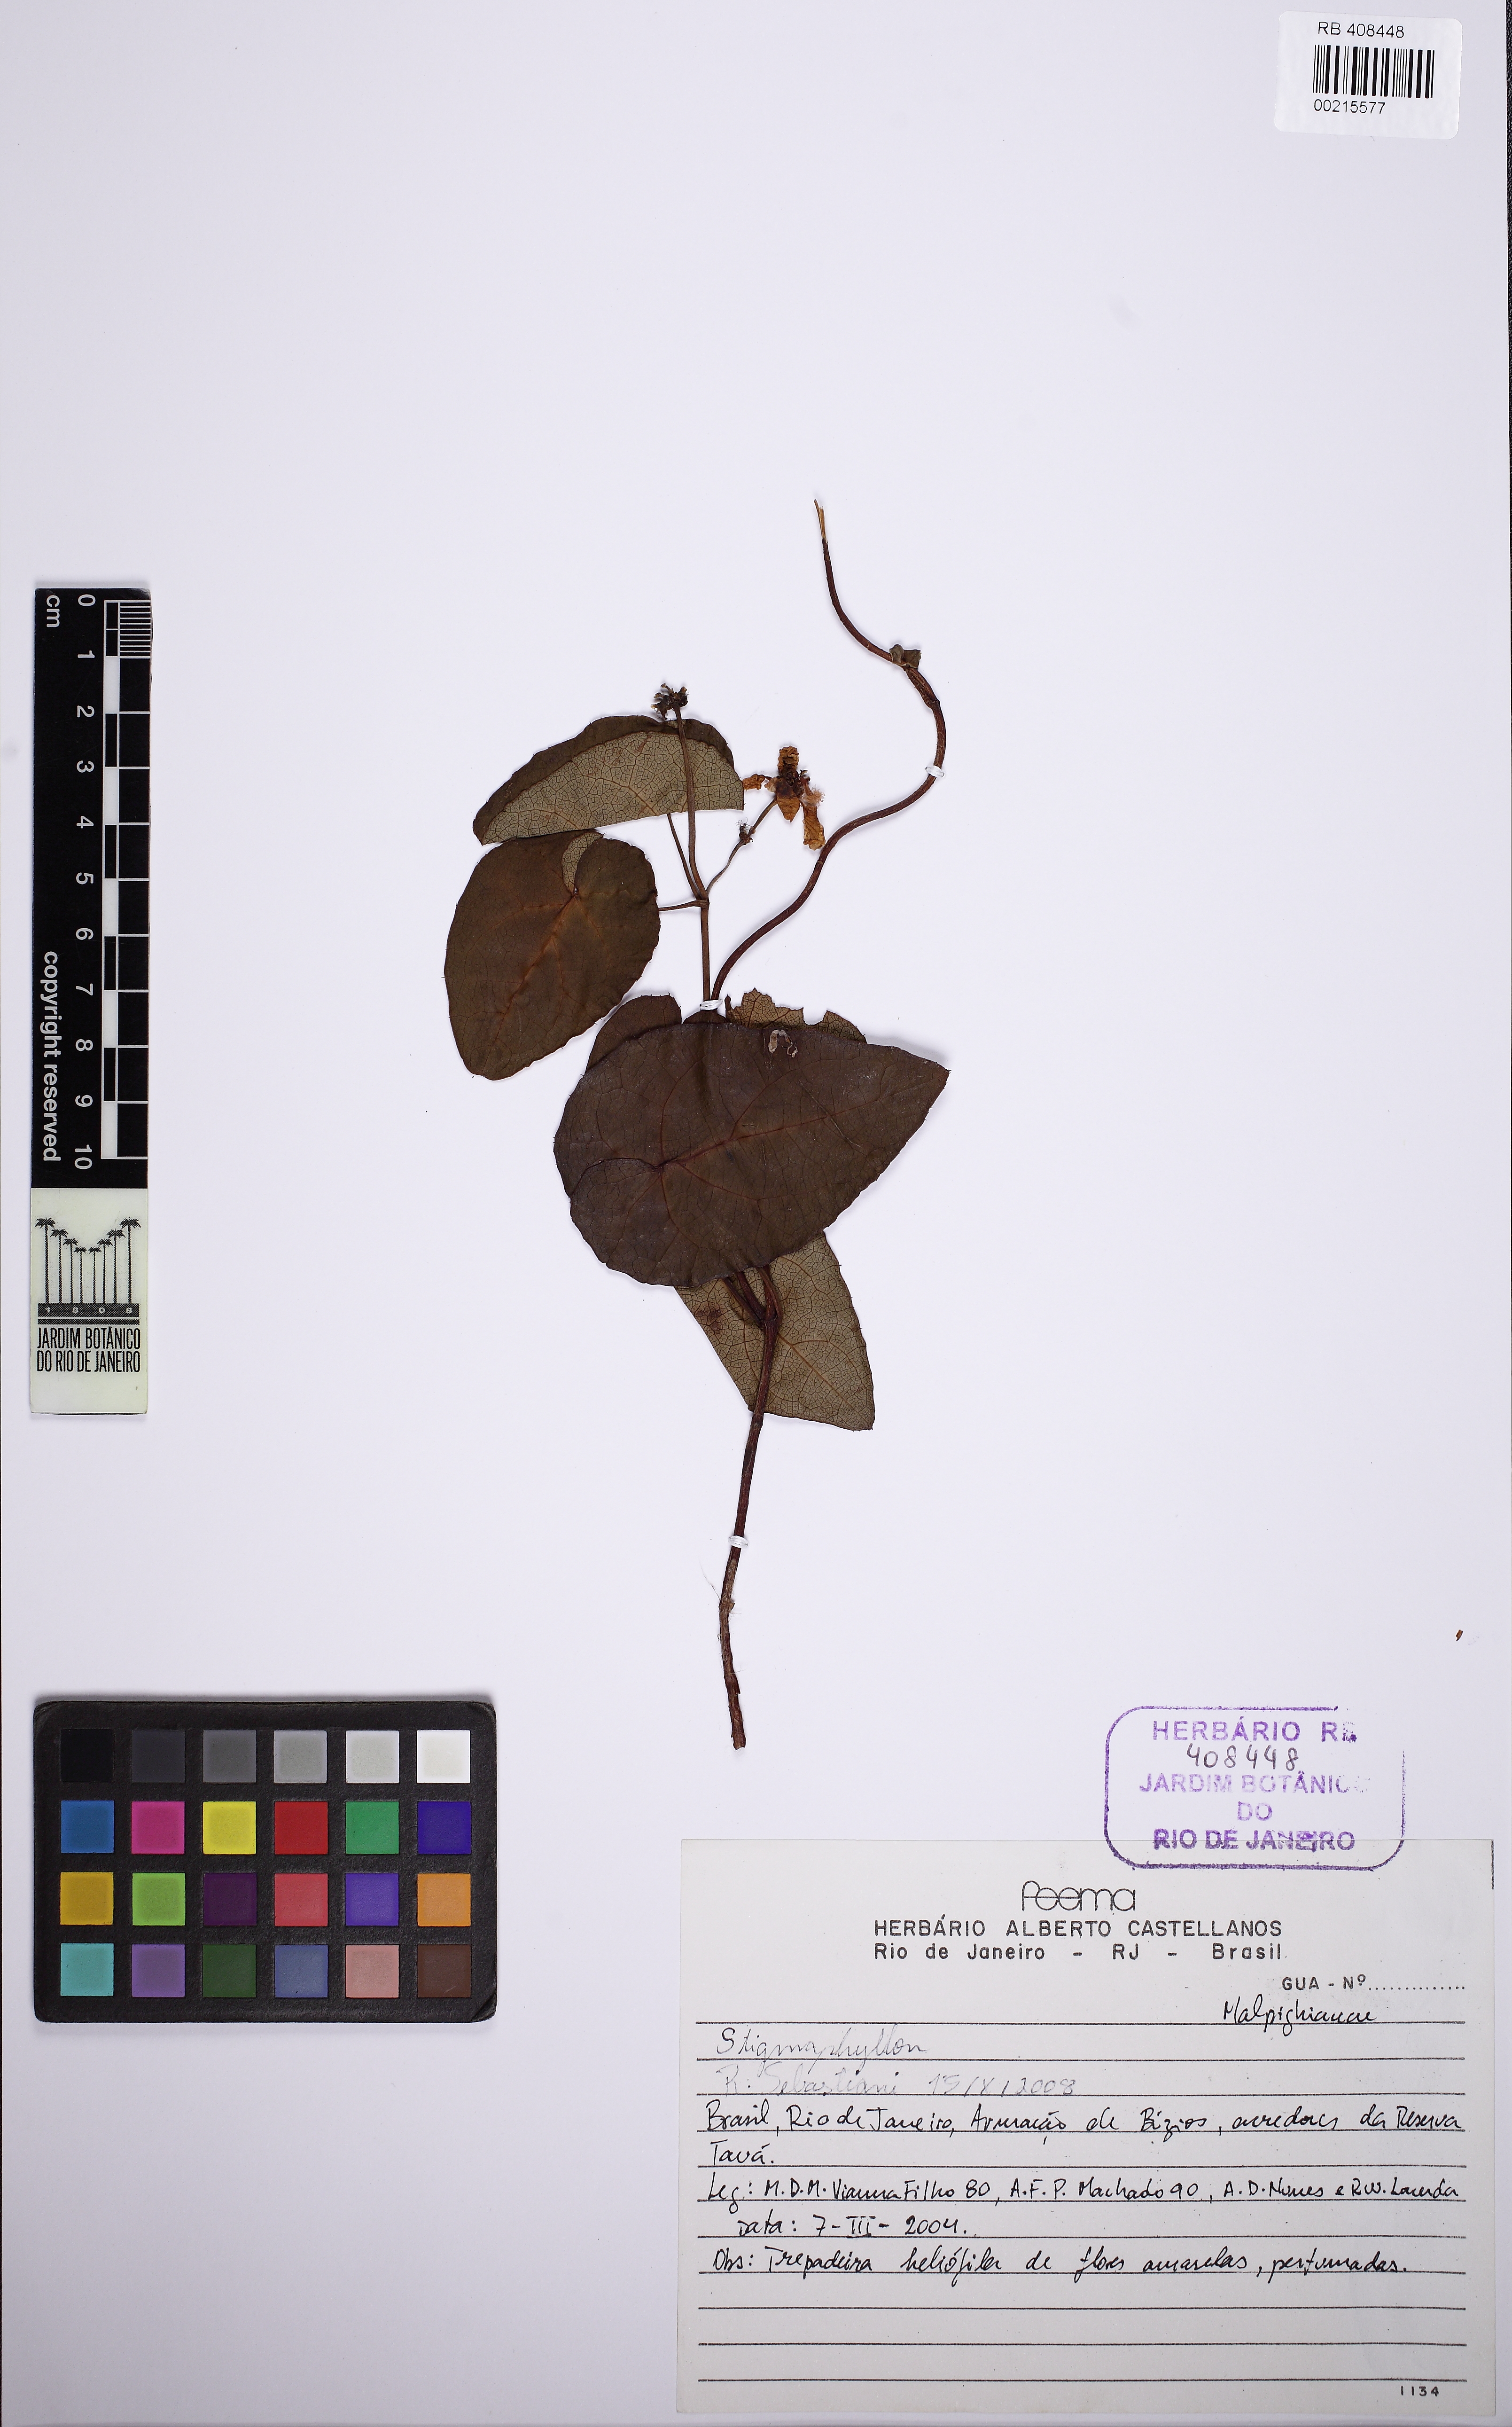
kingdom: Plantae
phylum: Tracheophyta
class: Magnoliopsida
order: Malpighiales
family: Malpighiaceae
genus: Stigmaphyllon
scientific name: Stigmaphyllon ciliatum
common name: Amazonvine
